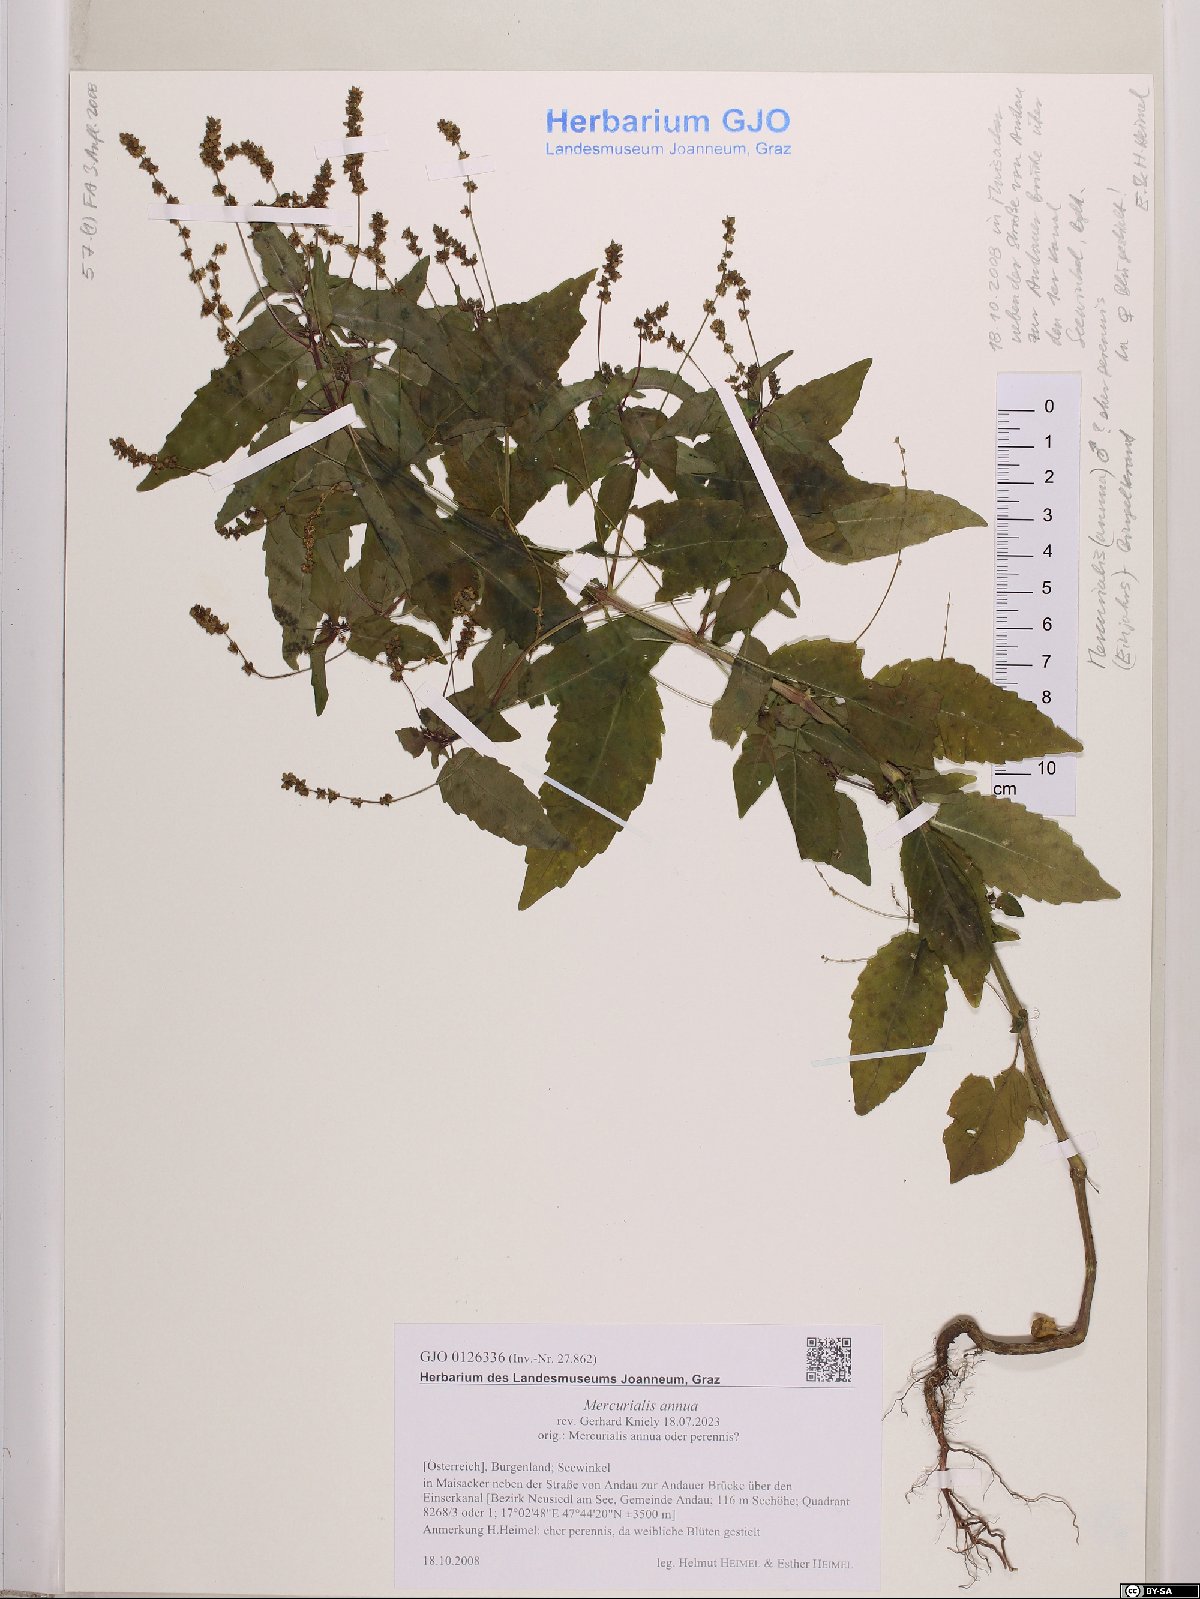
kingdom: Plantae
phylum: Tracheophyta
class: Magnoliopsida
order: Malpighiales
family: Euphorbiaceae
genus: Mercurialis
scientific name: Mercurialis annua
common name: Annual mercury
